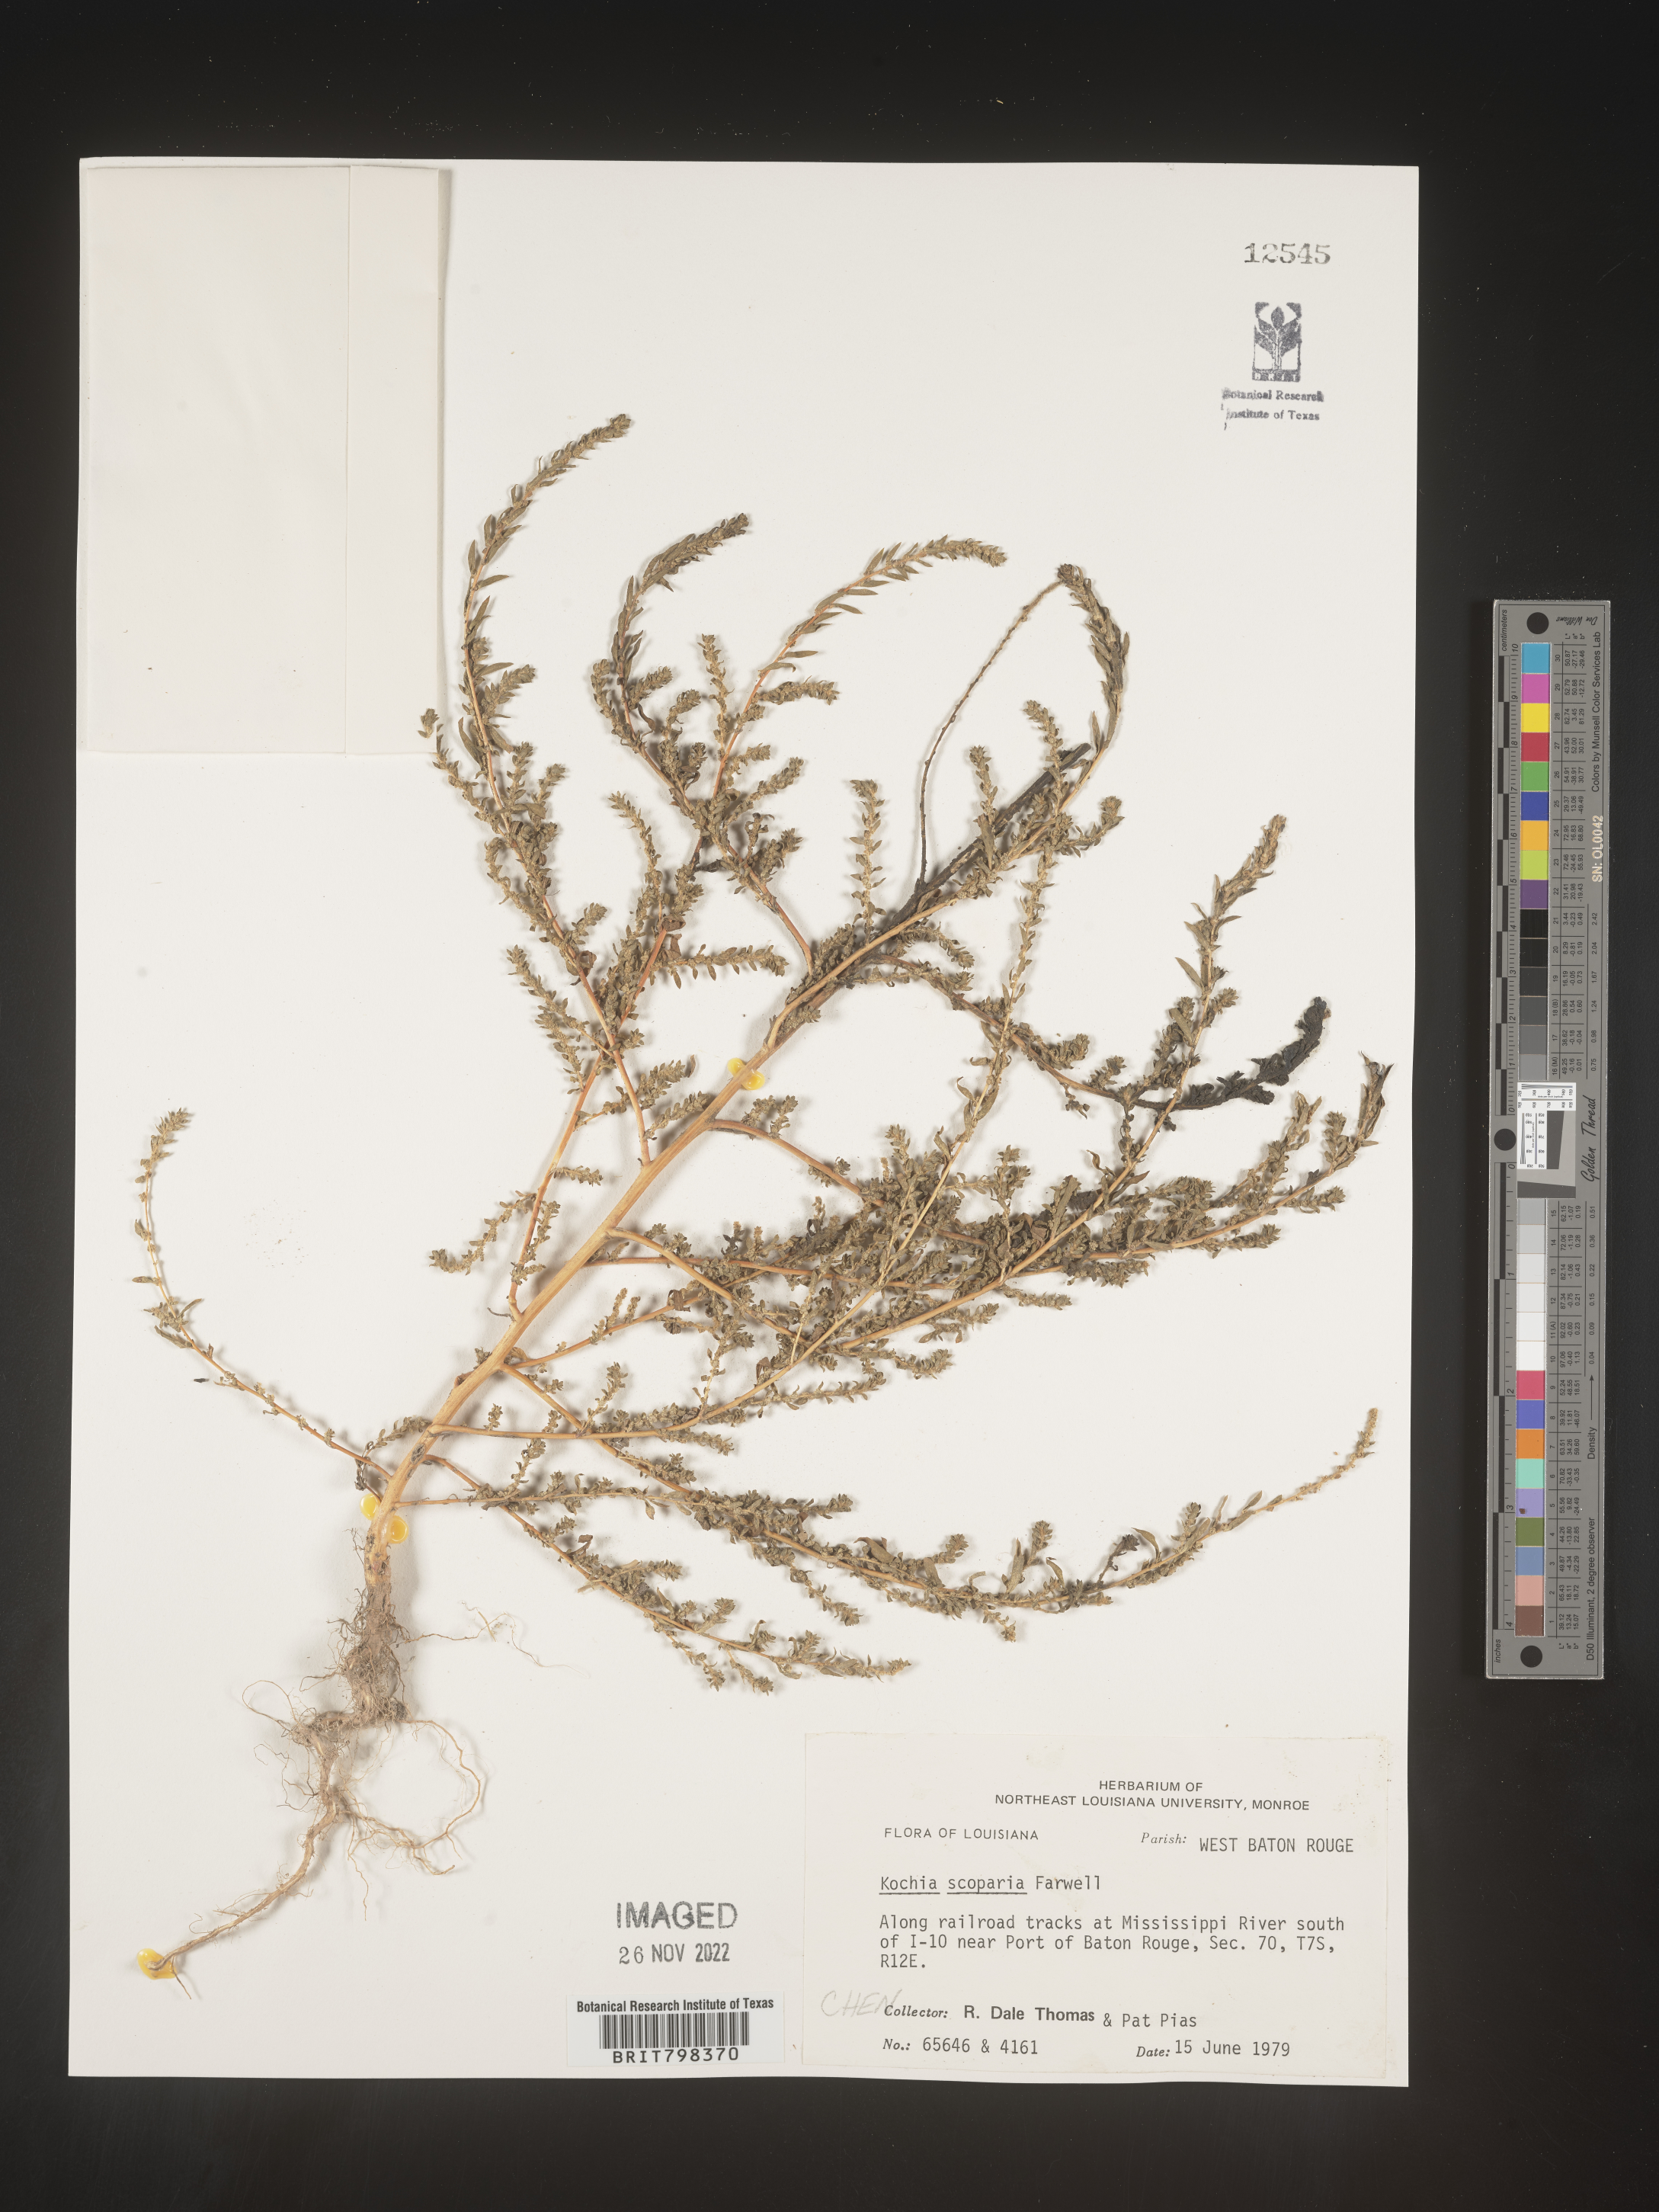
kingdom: Plantae
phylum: Tracheophyta
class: Magnoliopsida
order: Caryophyllales
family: Amaranthaceae
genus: Bassia
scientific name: Bassia
